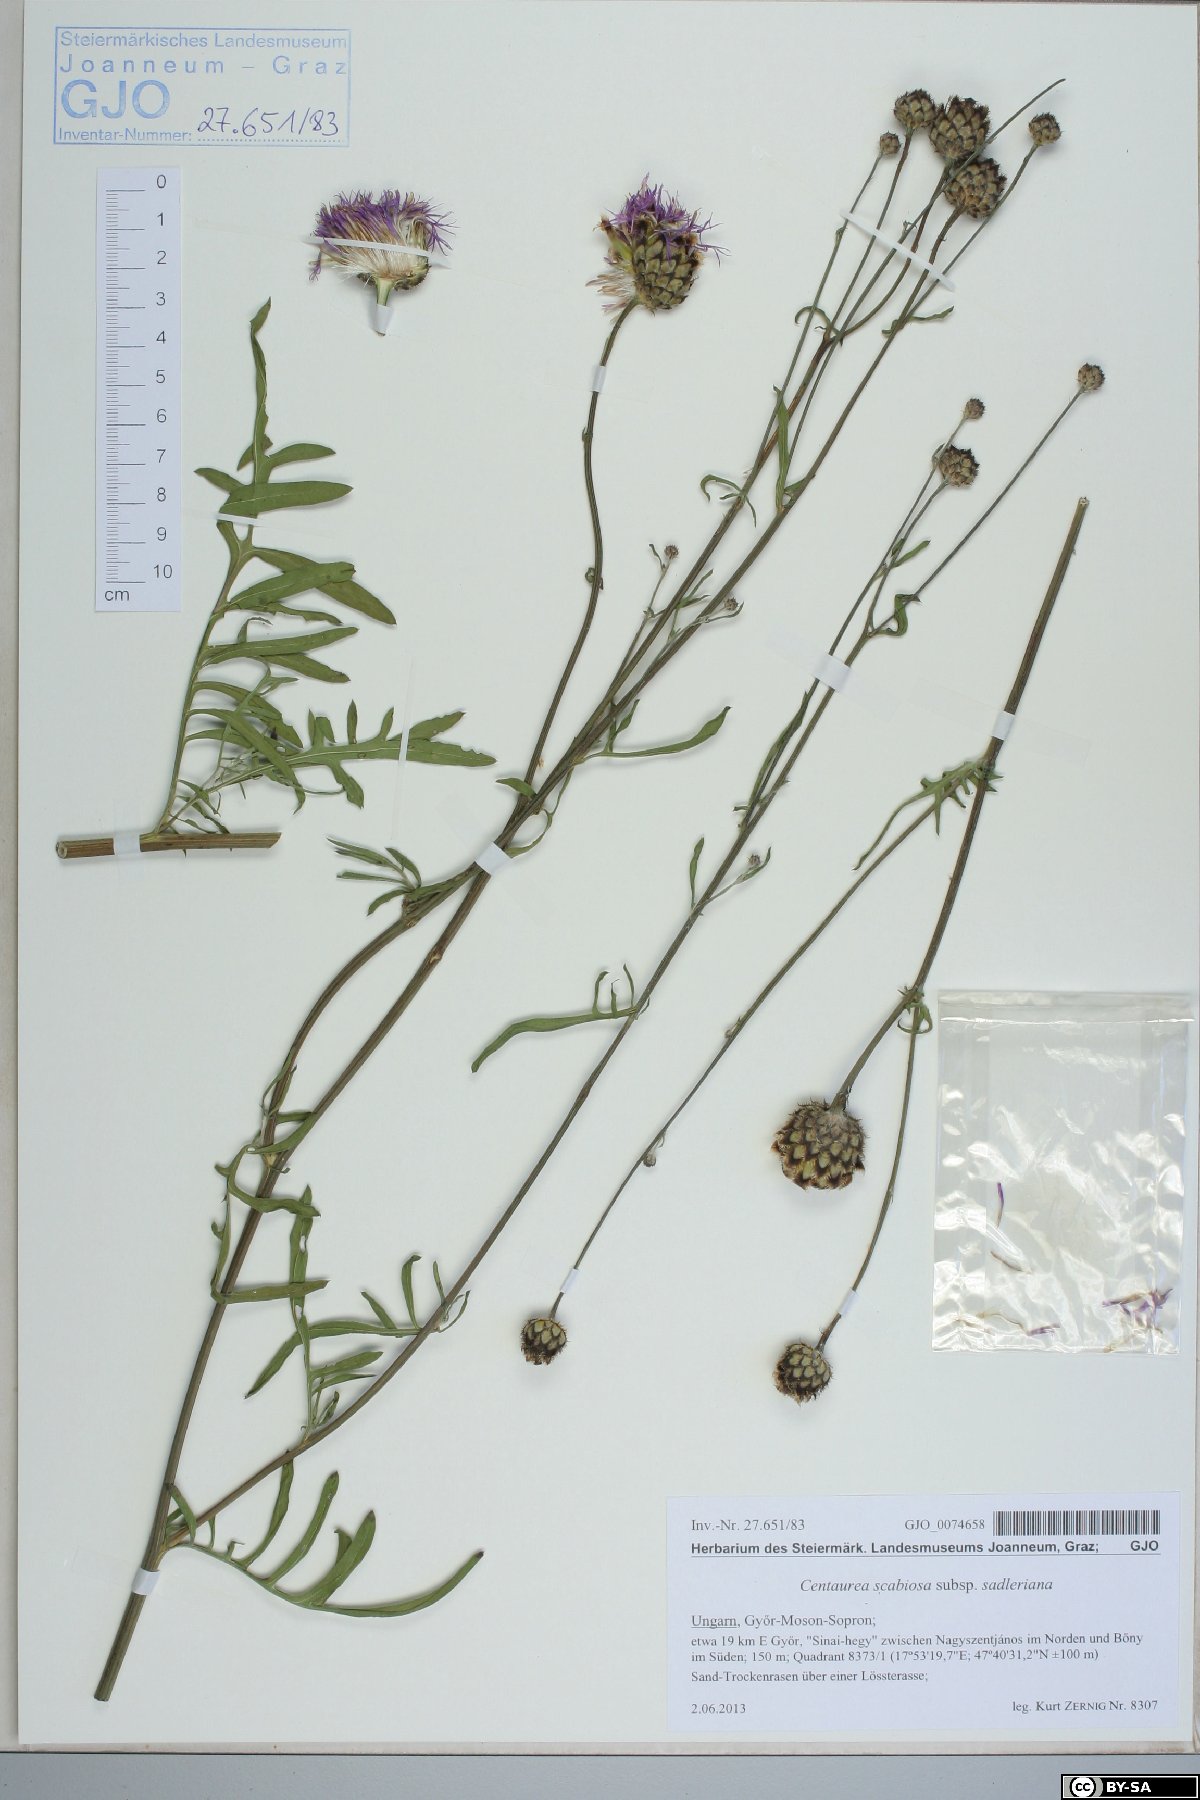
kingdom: Plantae
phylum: Tracheophyta
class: Magnoliopsida
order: Asterales
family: Asteraceae
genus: Centaurea
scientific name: Centaurea sadleriana
